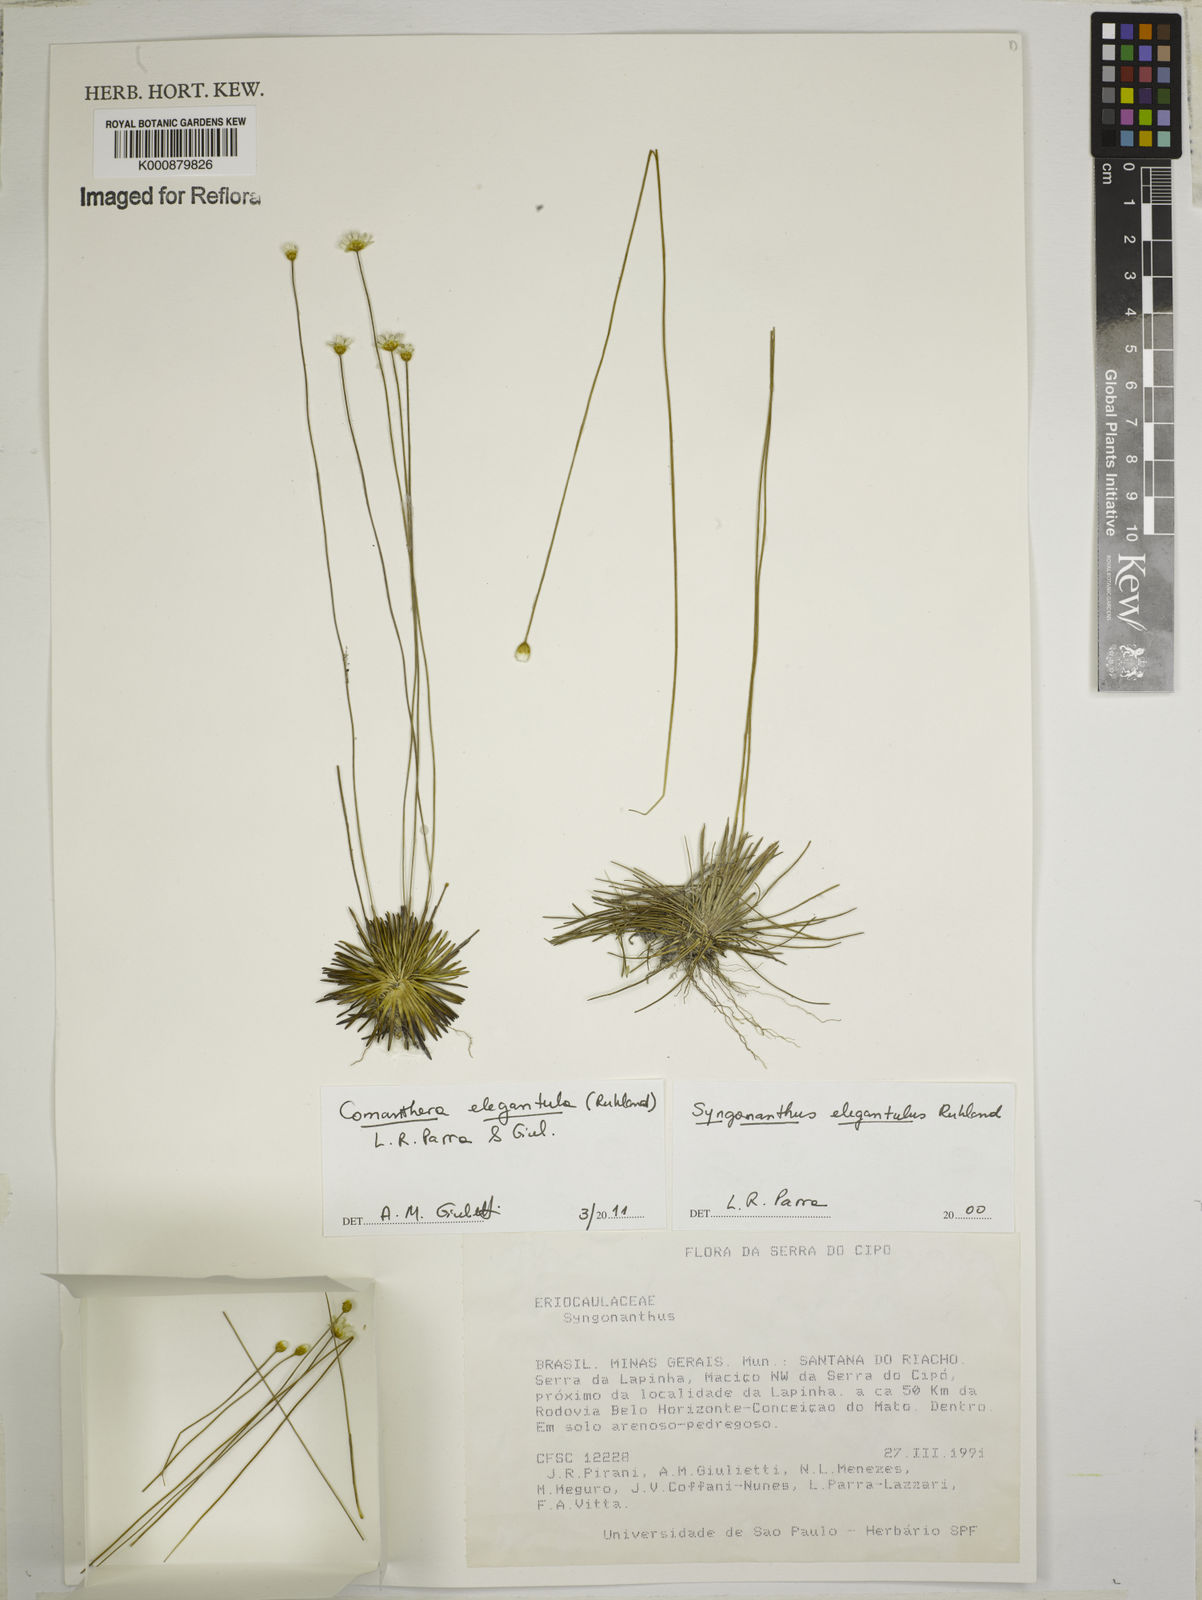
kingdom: Plantae
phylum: Tracheophyta
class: Liliopsida
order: Poales
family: Eriocaulaceae
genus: Comanthera
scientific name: Comanthera elegantula
